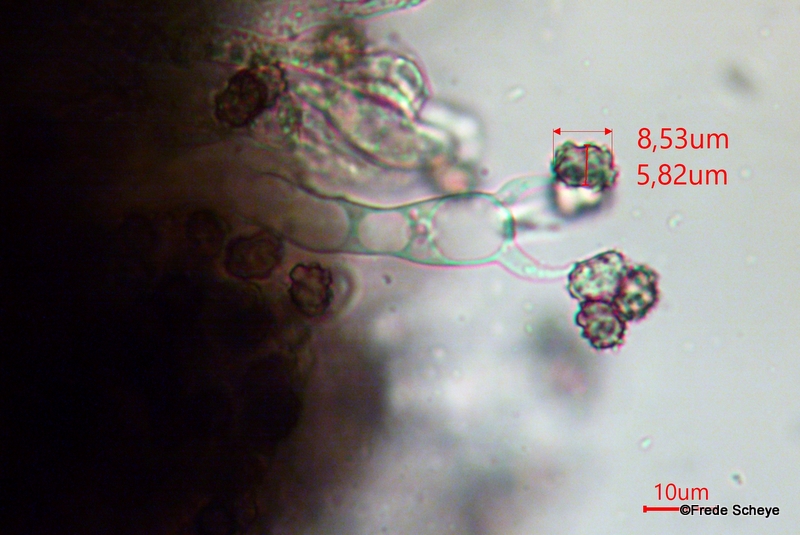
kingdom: Fungi
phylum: Basidiomycota
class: Agaricomycetes
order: Thelephorales
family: Thelephoraceae
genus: Thelephora
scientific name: Thelephora terrestris
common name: fliget frynsesvamp
